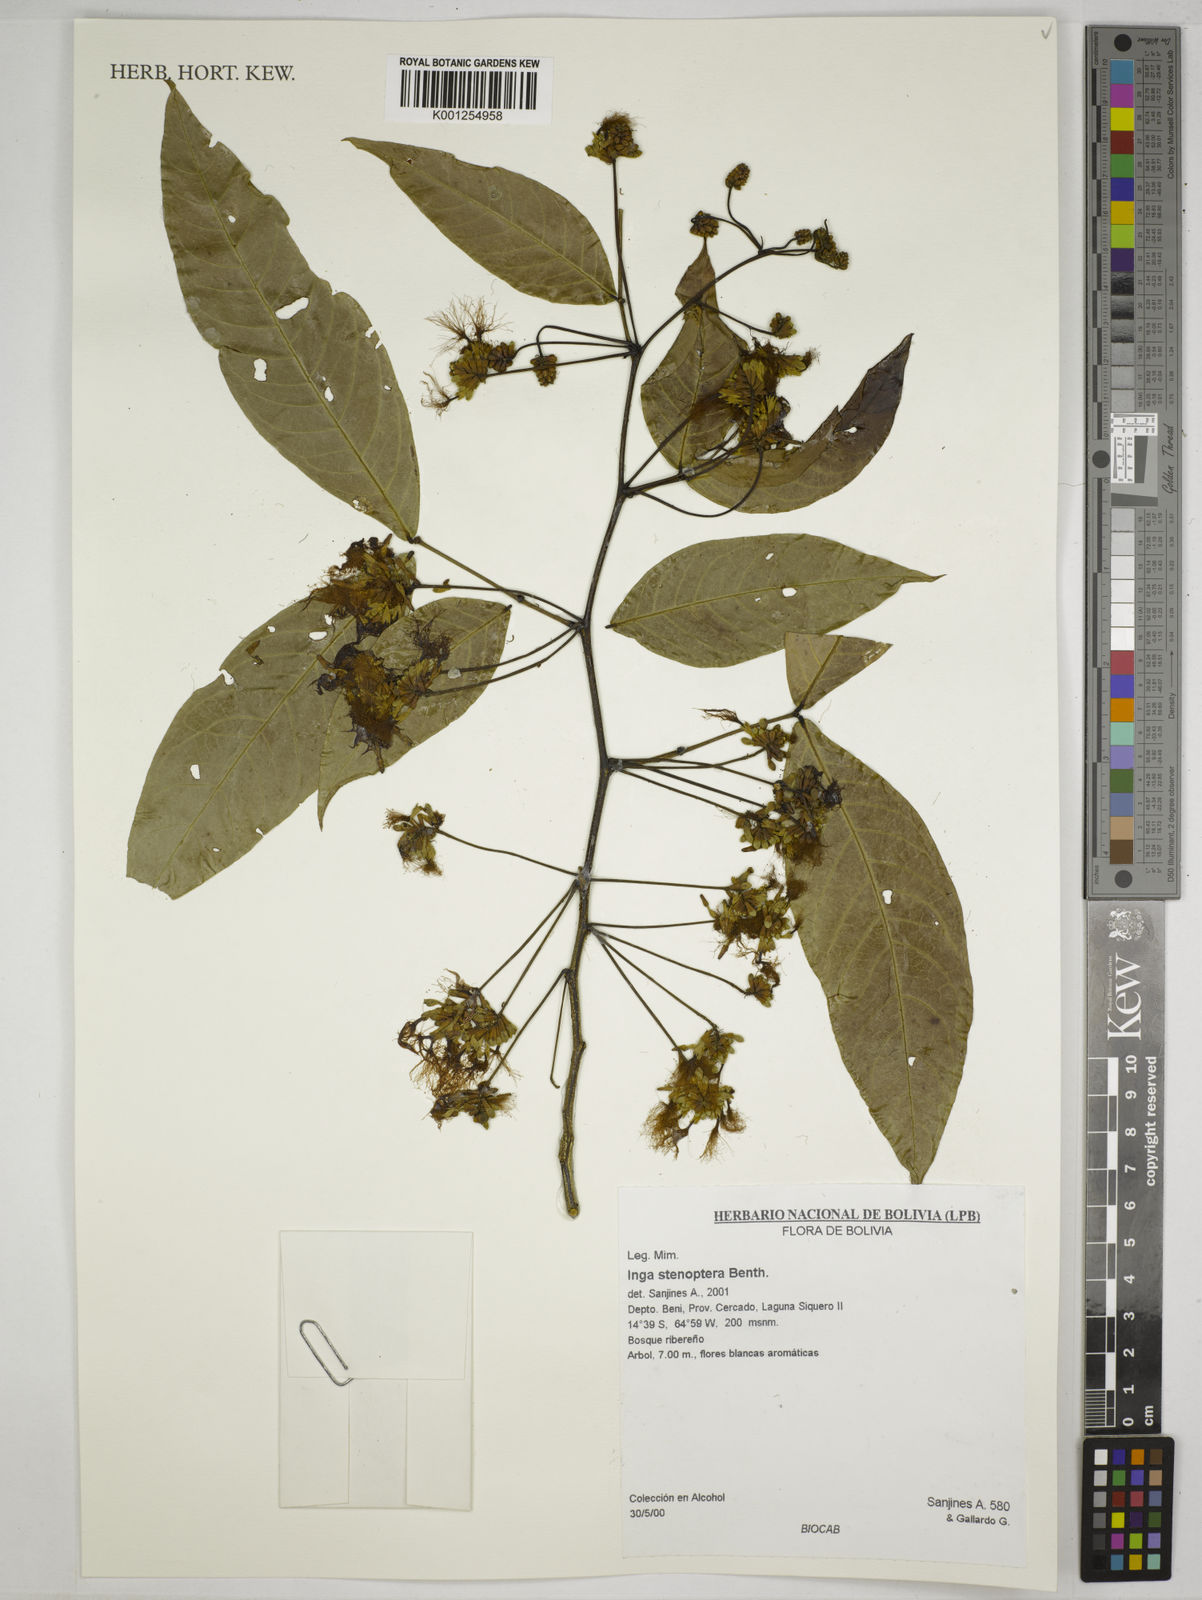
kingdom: Plantae
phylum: Tracheophyta
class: Magnoliopsida
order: Fabales
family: Fabaceae
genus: Inga
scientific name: Inga stenoptera
